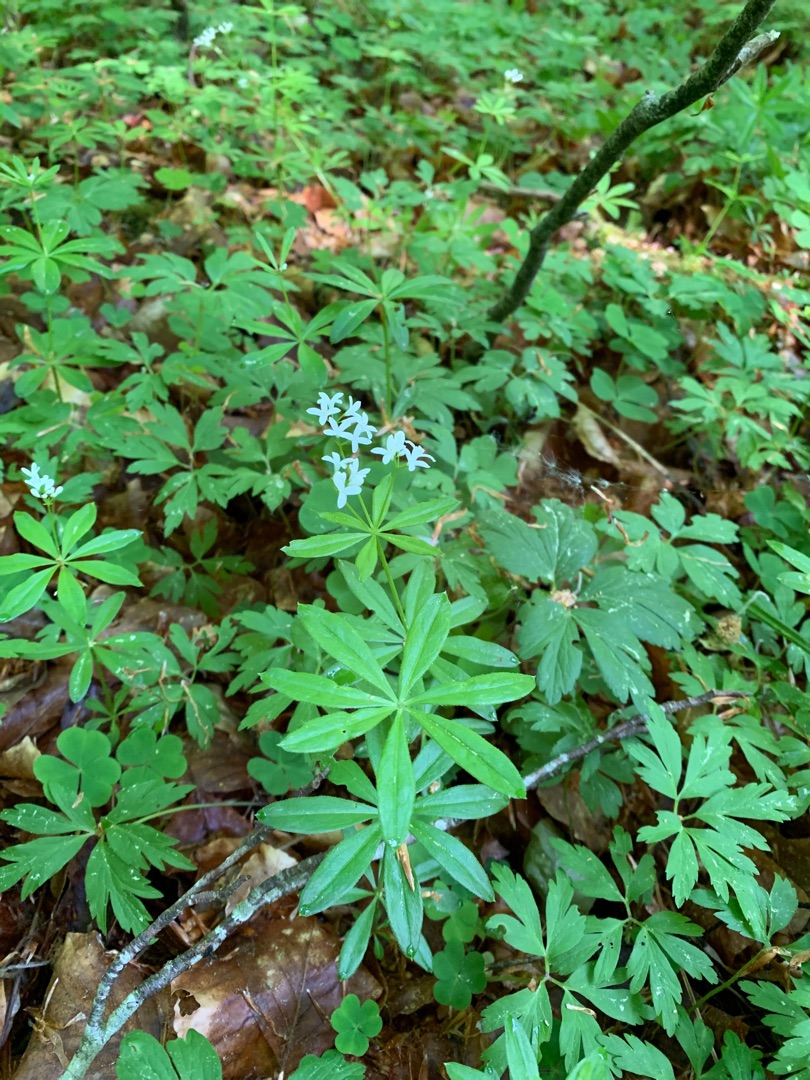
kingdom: Plantae
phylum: Tracheophyta
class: Magnoliopsida
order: Gentianales
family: Rubiaceae
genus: Galium
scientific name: Galium odoratum
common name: Skovmærke
